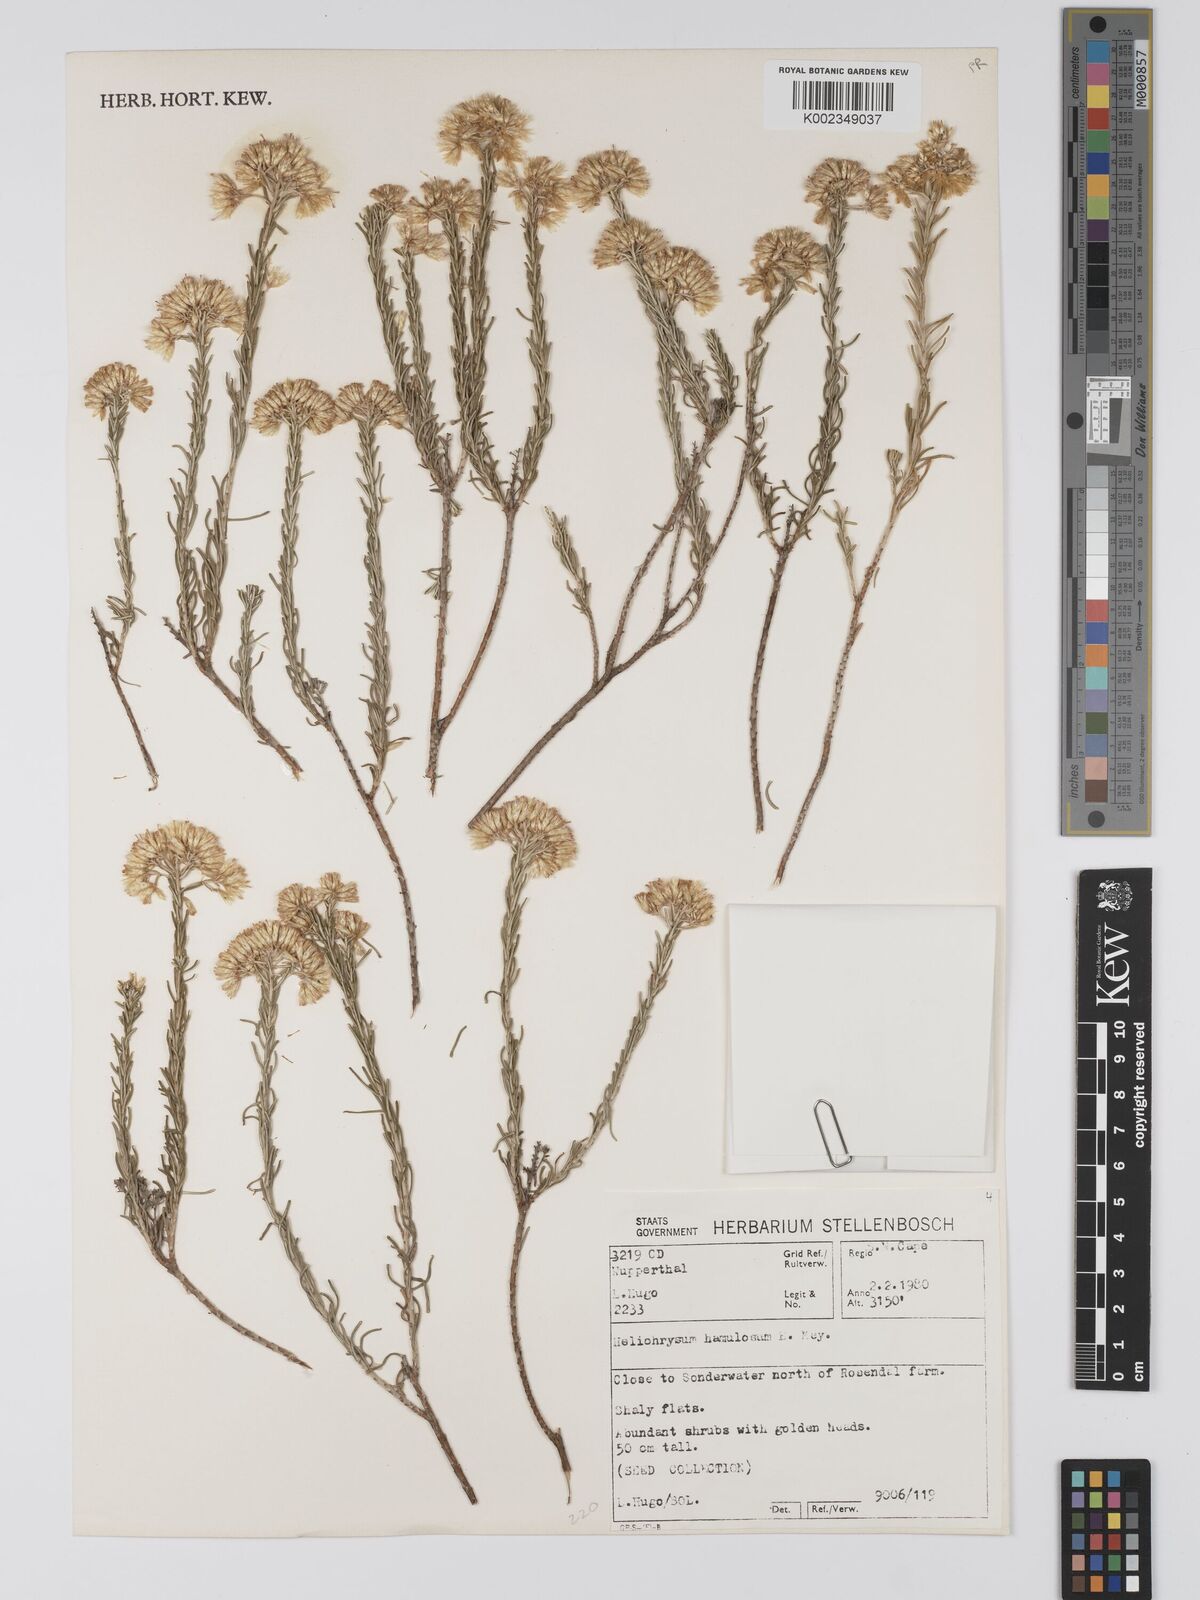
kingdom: Plantae
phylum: Tracheophyta
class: Magnoliopsida
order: Asterales
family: Asteraceae
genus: Helichrysum
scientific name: Helichrysum hamulosum
